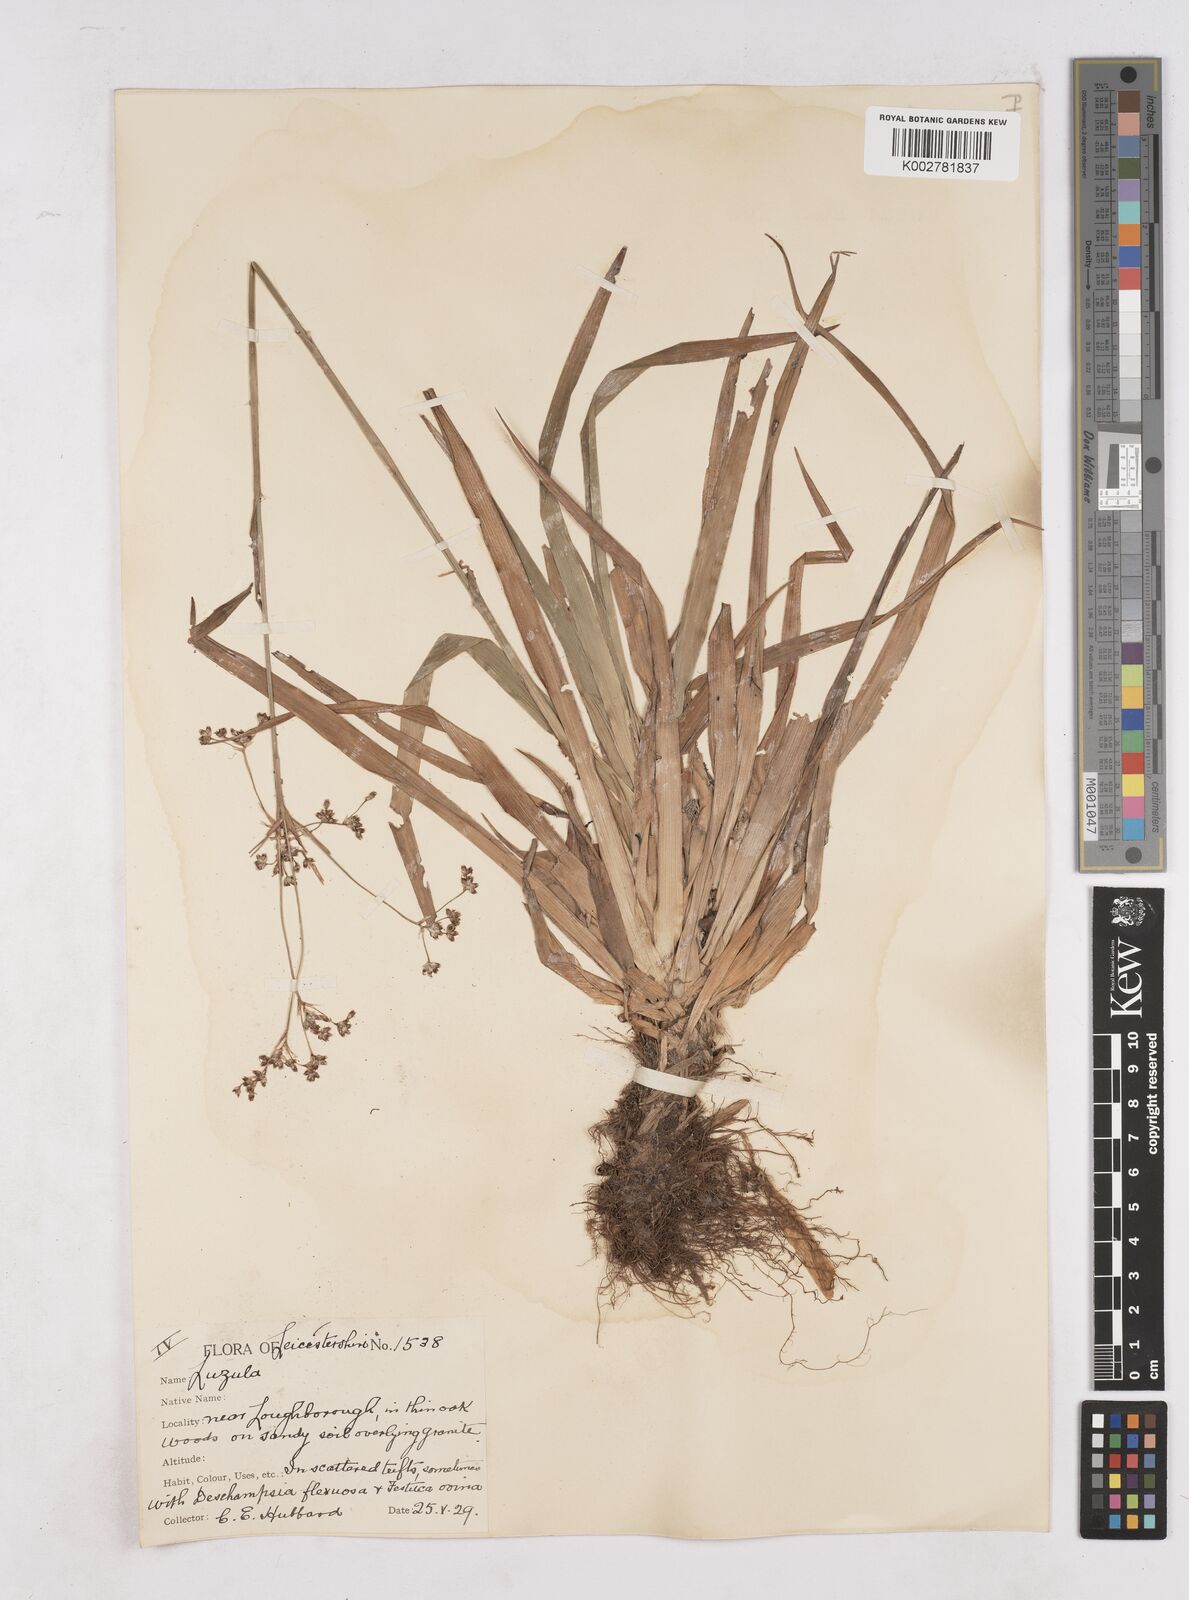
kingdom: Plantae
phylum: Tracheophyta
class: Liliopsida
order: Poales
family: Juncaceae
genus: Luzula
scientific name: Luzula sylvatica
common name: Great wood-rush
